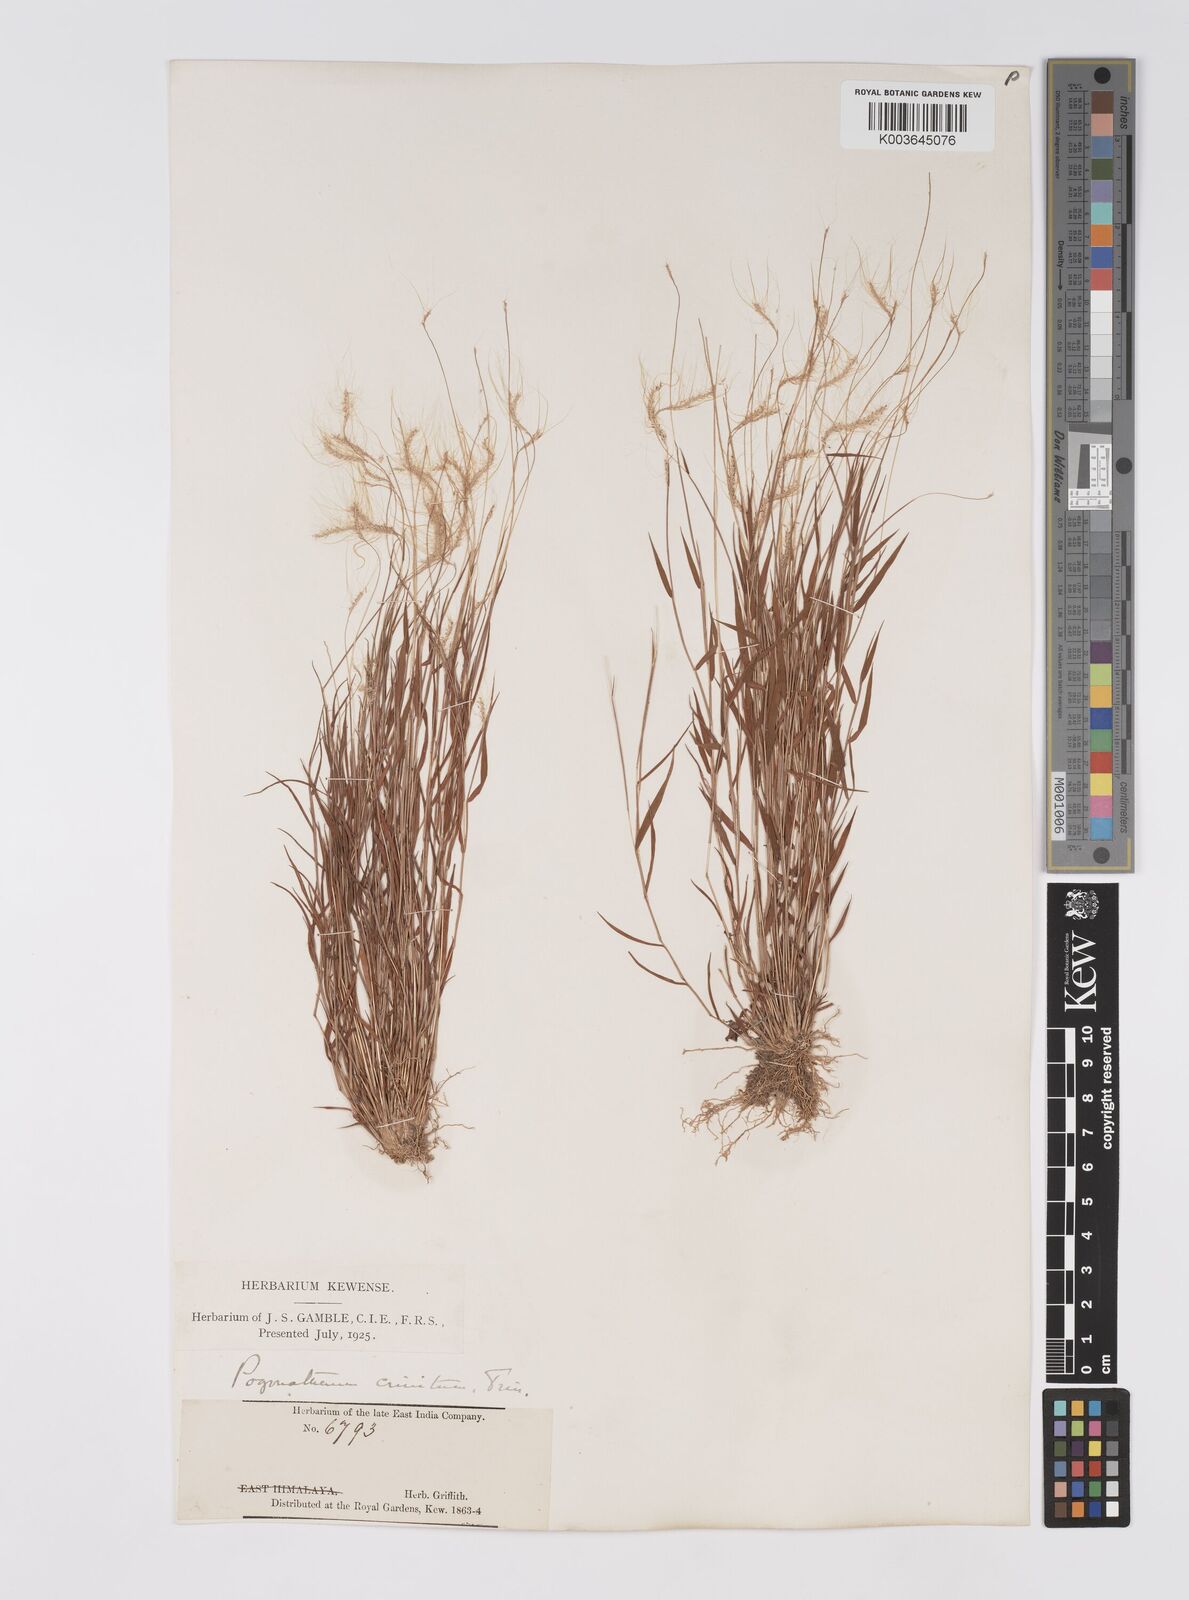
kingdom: Plantae
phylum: Tracheophyta
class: Liliopsida
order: Poales
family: Poaceae
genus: Pogonatherum
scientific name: Pogonatherum crinitum
